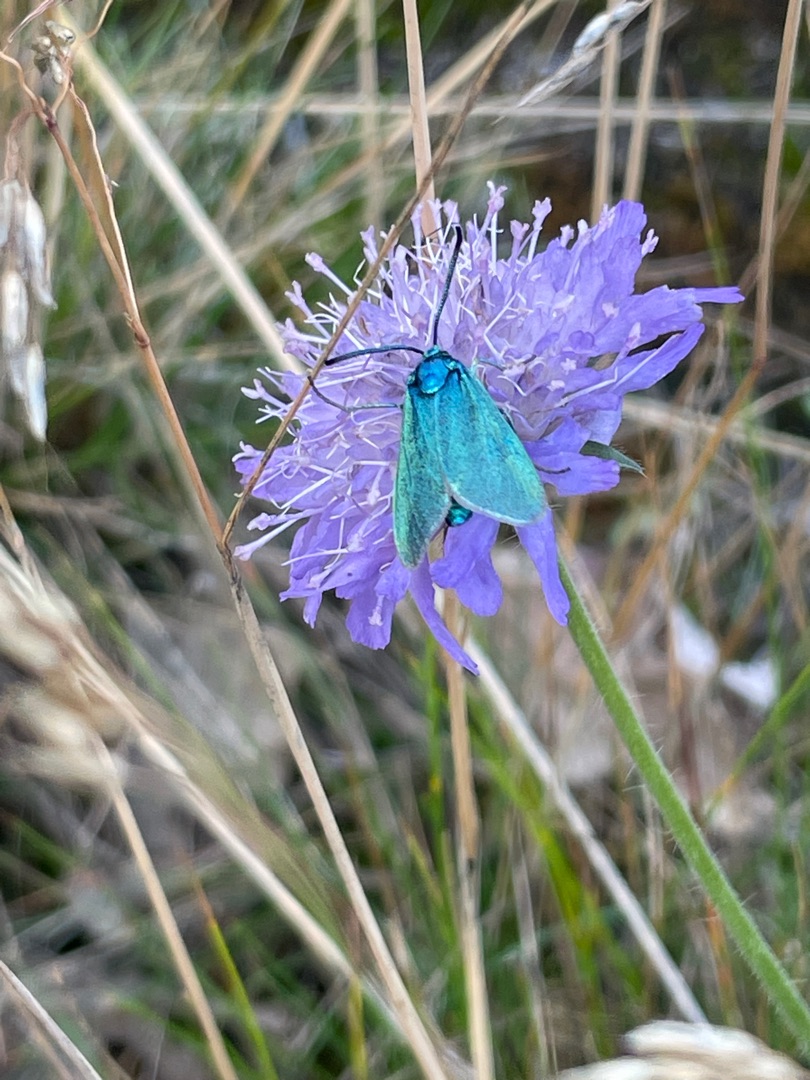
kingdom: Animalia
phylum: Arthropoda
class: Insecta
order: Lepidoptera
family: Zygaenidae
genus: Adscita
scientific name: Adscita statices
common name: Metalvinge
